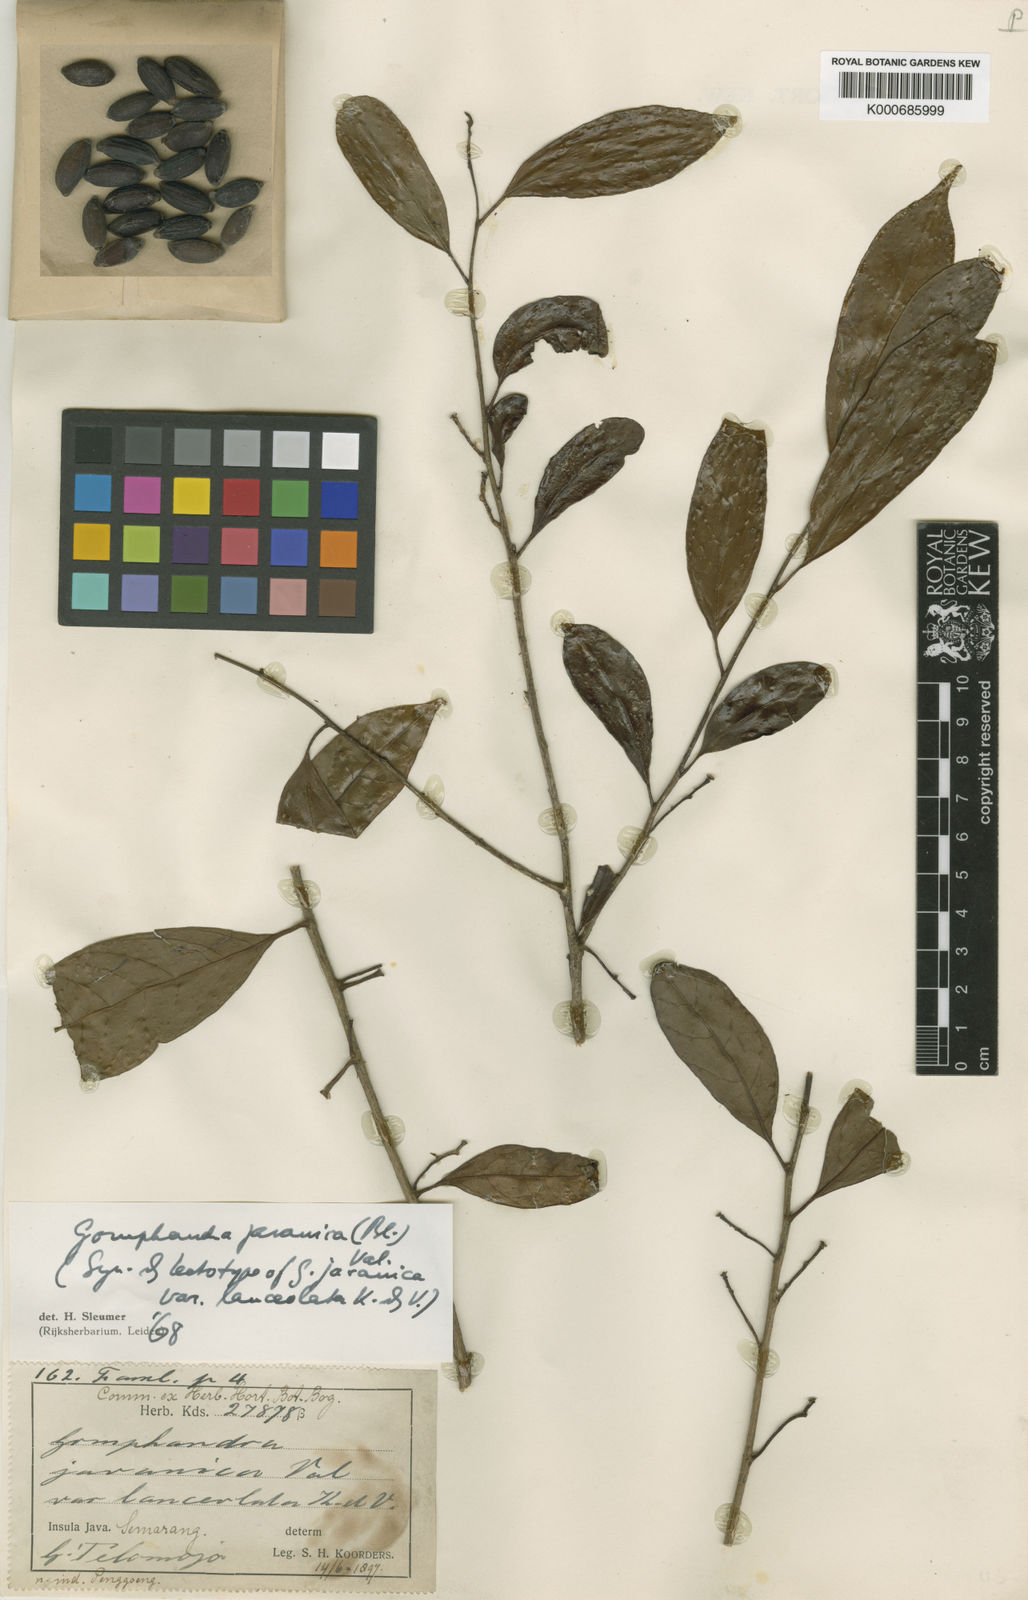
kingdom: Plantae
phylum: Tracheophyta
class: Magnoliopsida
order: Cardiopteridales
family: Stemonuraceae
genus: Gomphandra
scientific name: Gomphandra javanica
